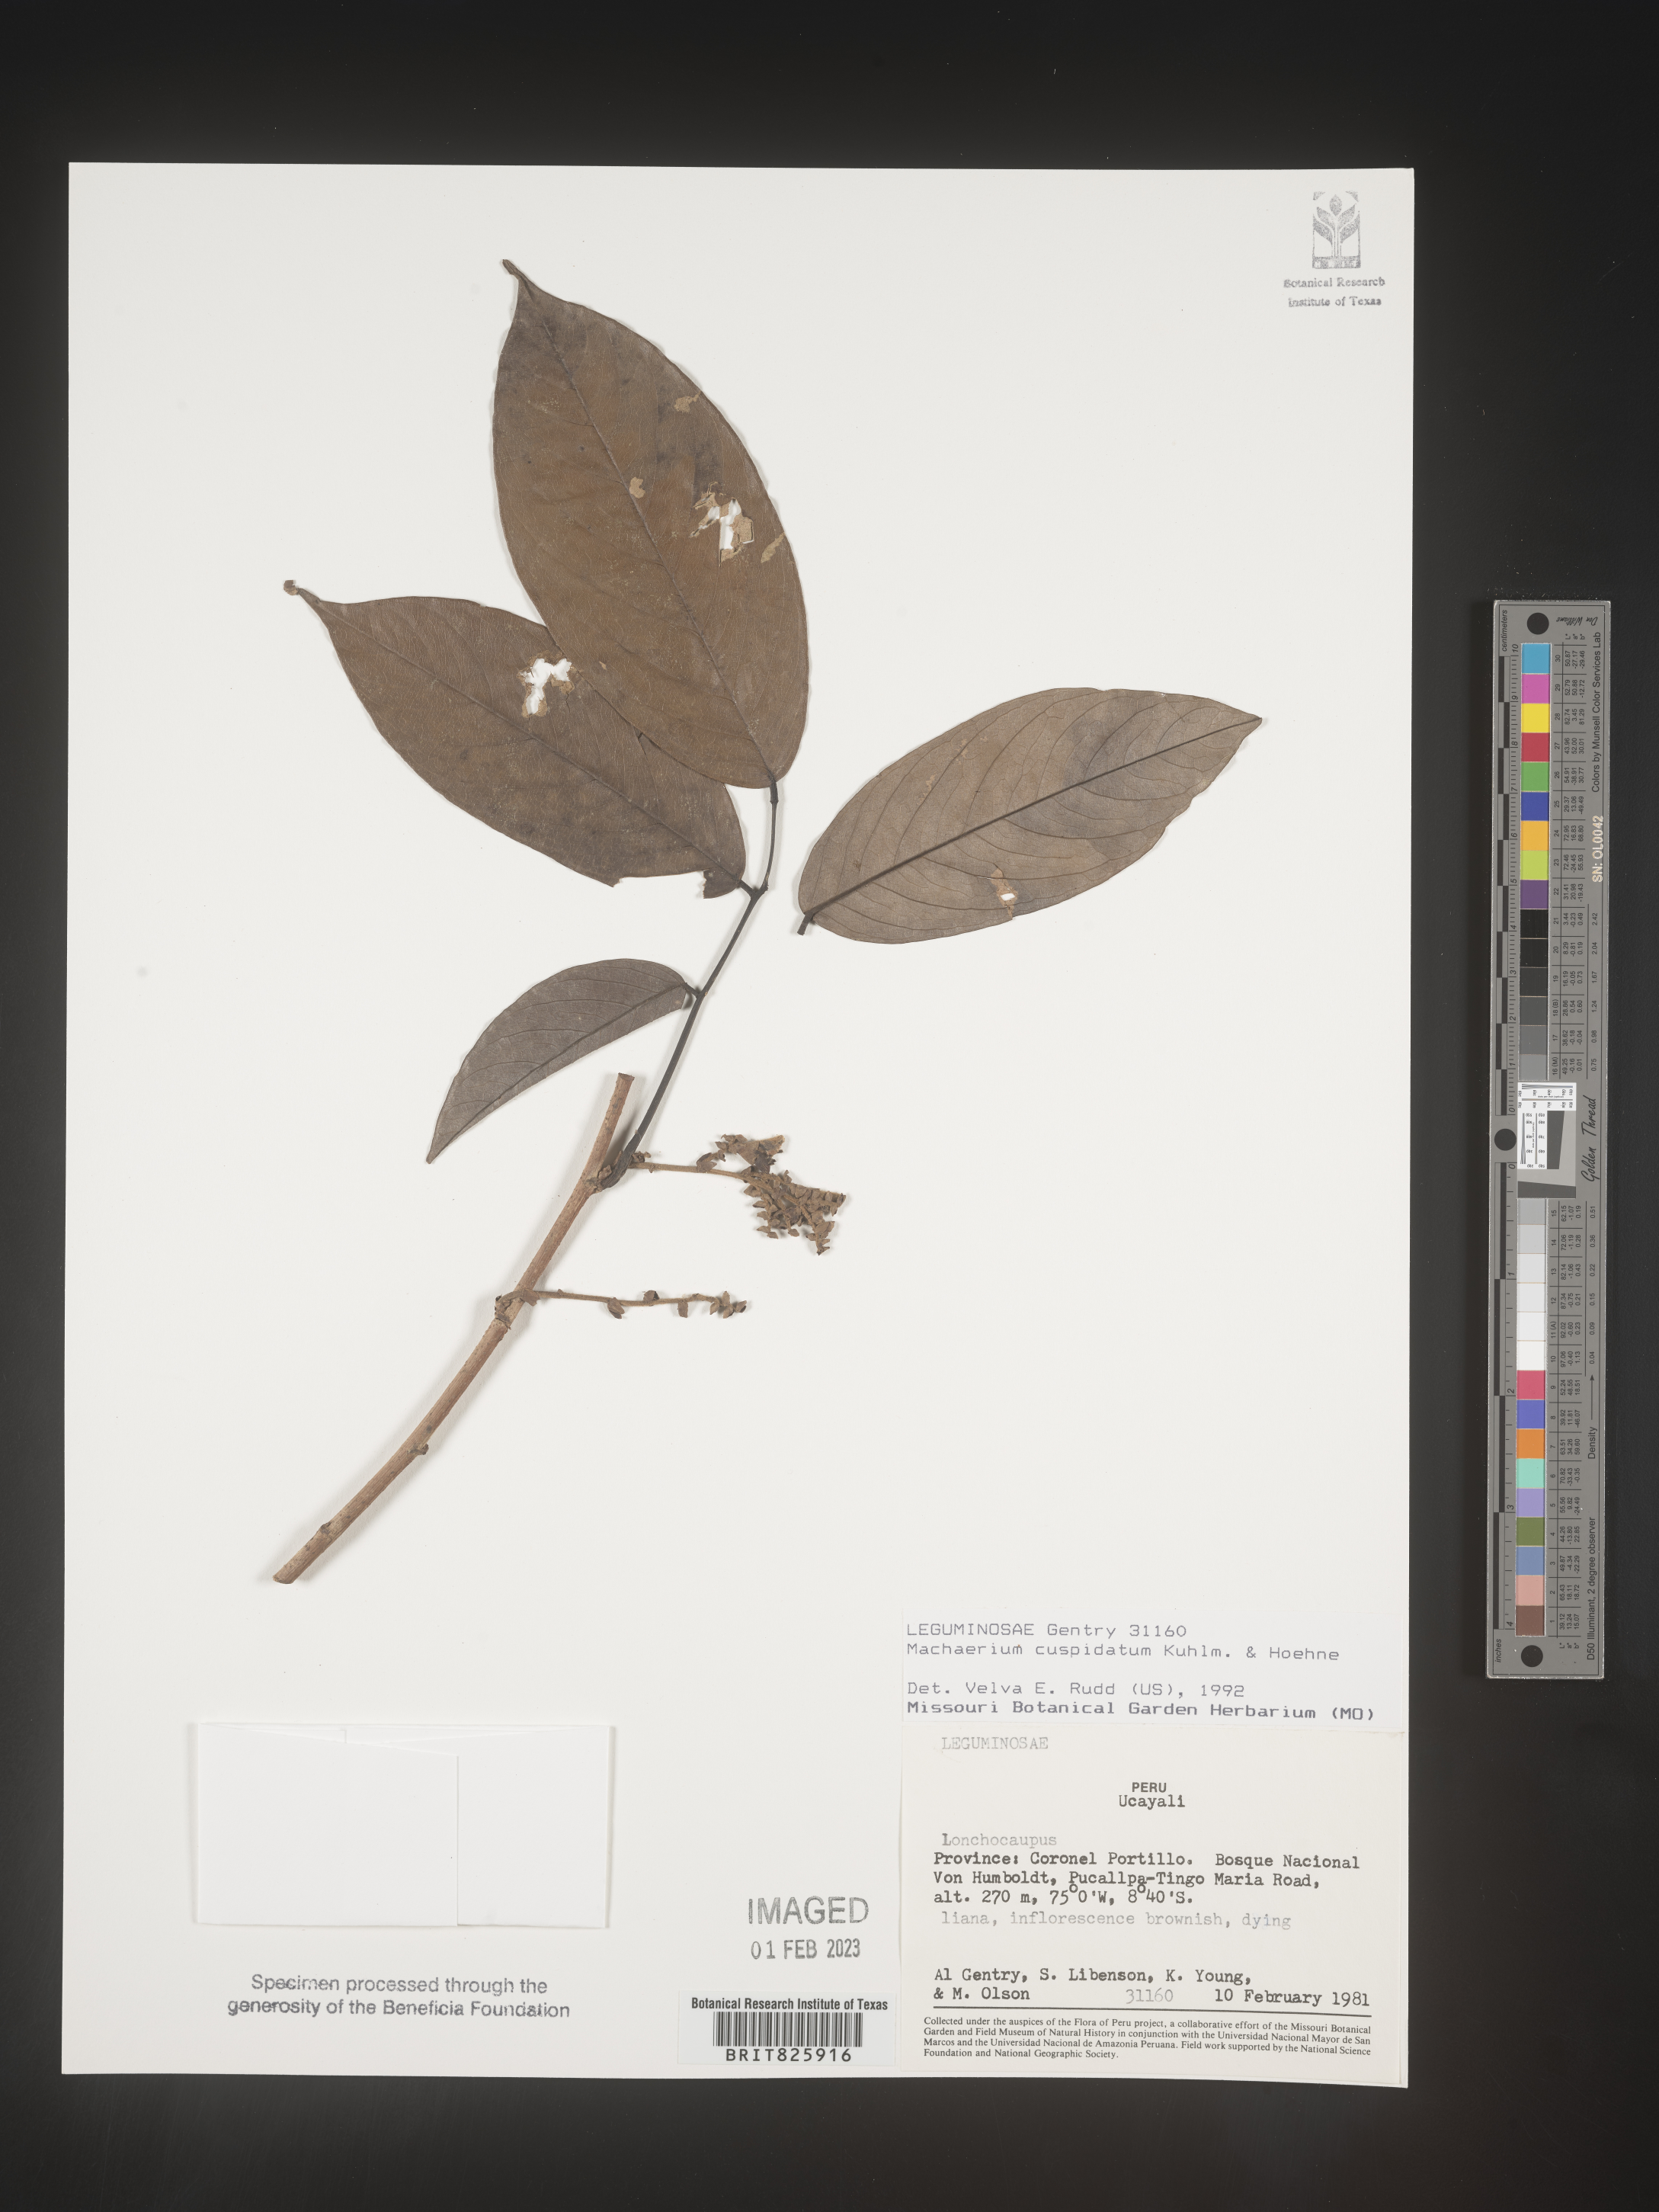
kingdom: Plantae
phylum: Tracheophyta
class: Magnoliopsida
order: Fabales
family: Fabaceae
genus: Machaerium
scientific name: Machaerium
